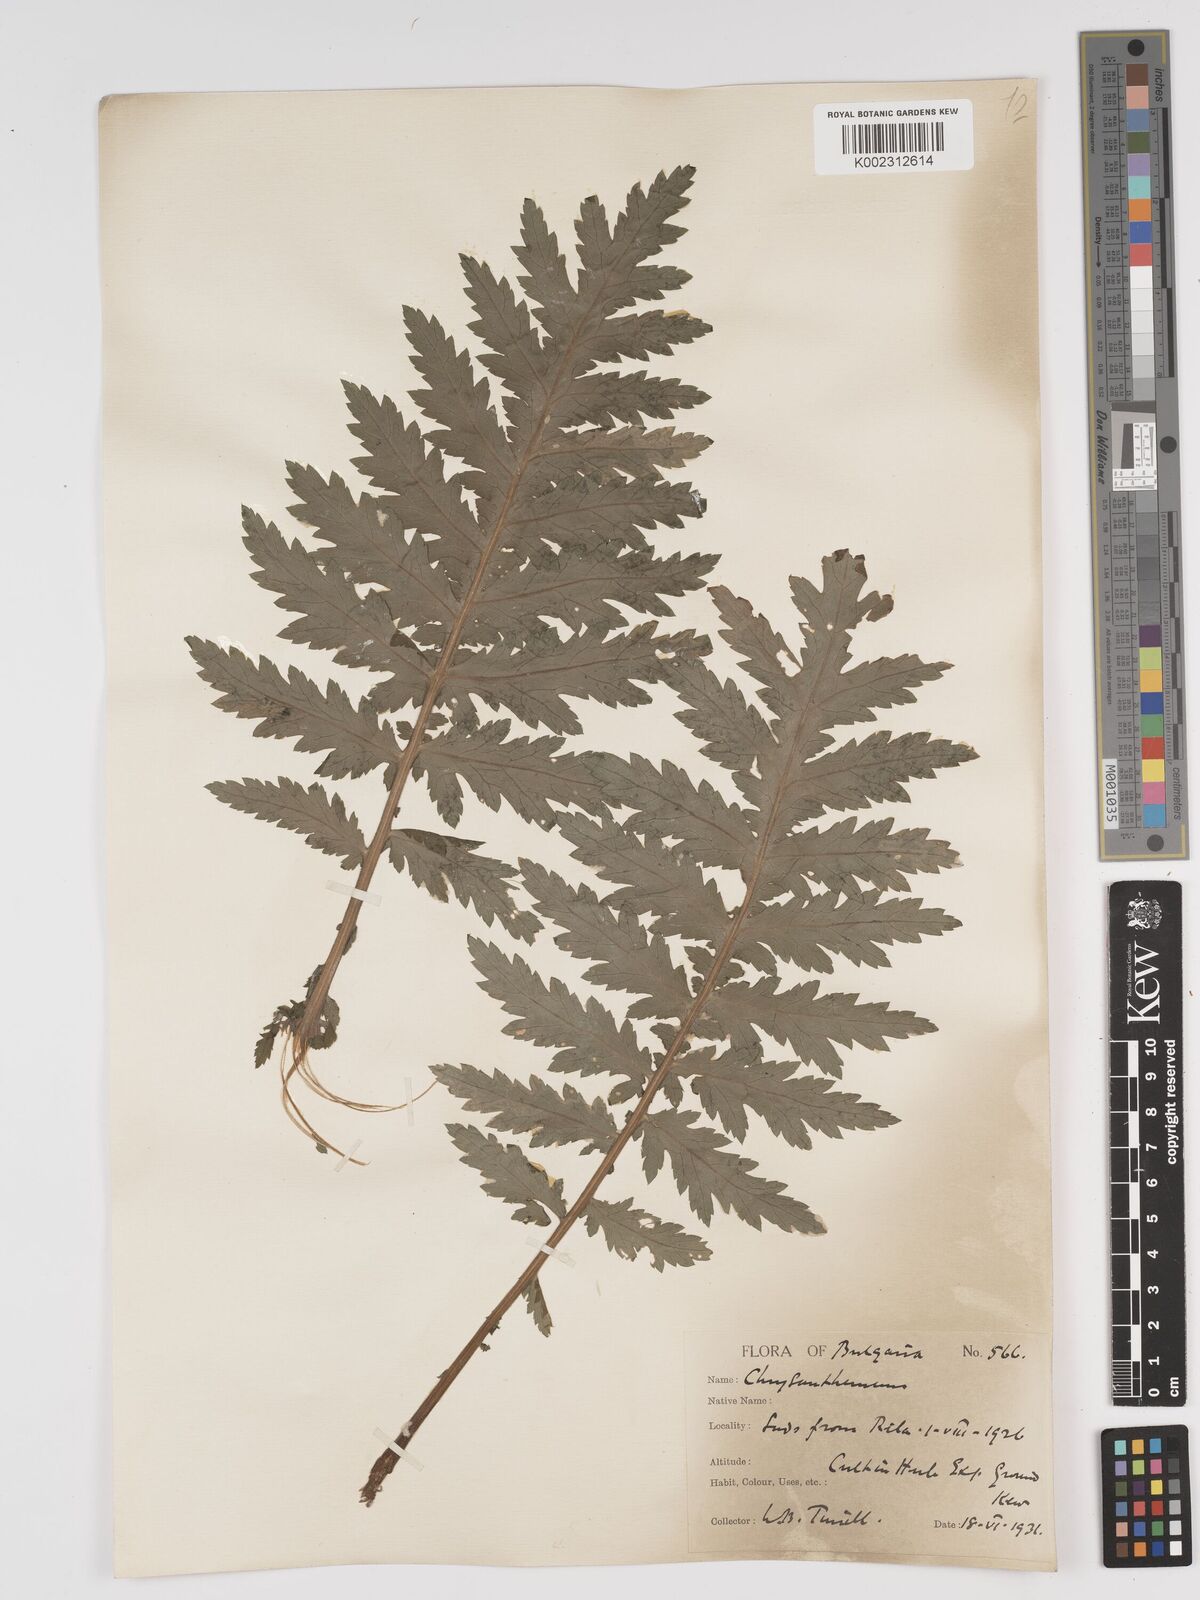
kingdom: Plantae
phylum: Tracheophyta
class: Magnoliopsida
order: Asterales
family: Asteraceae
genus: Tanacetum
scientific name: Tanacetum macrophyllum
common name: Rayed tansy
